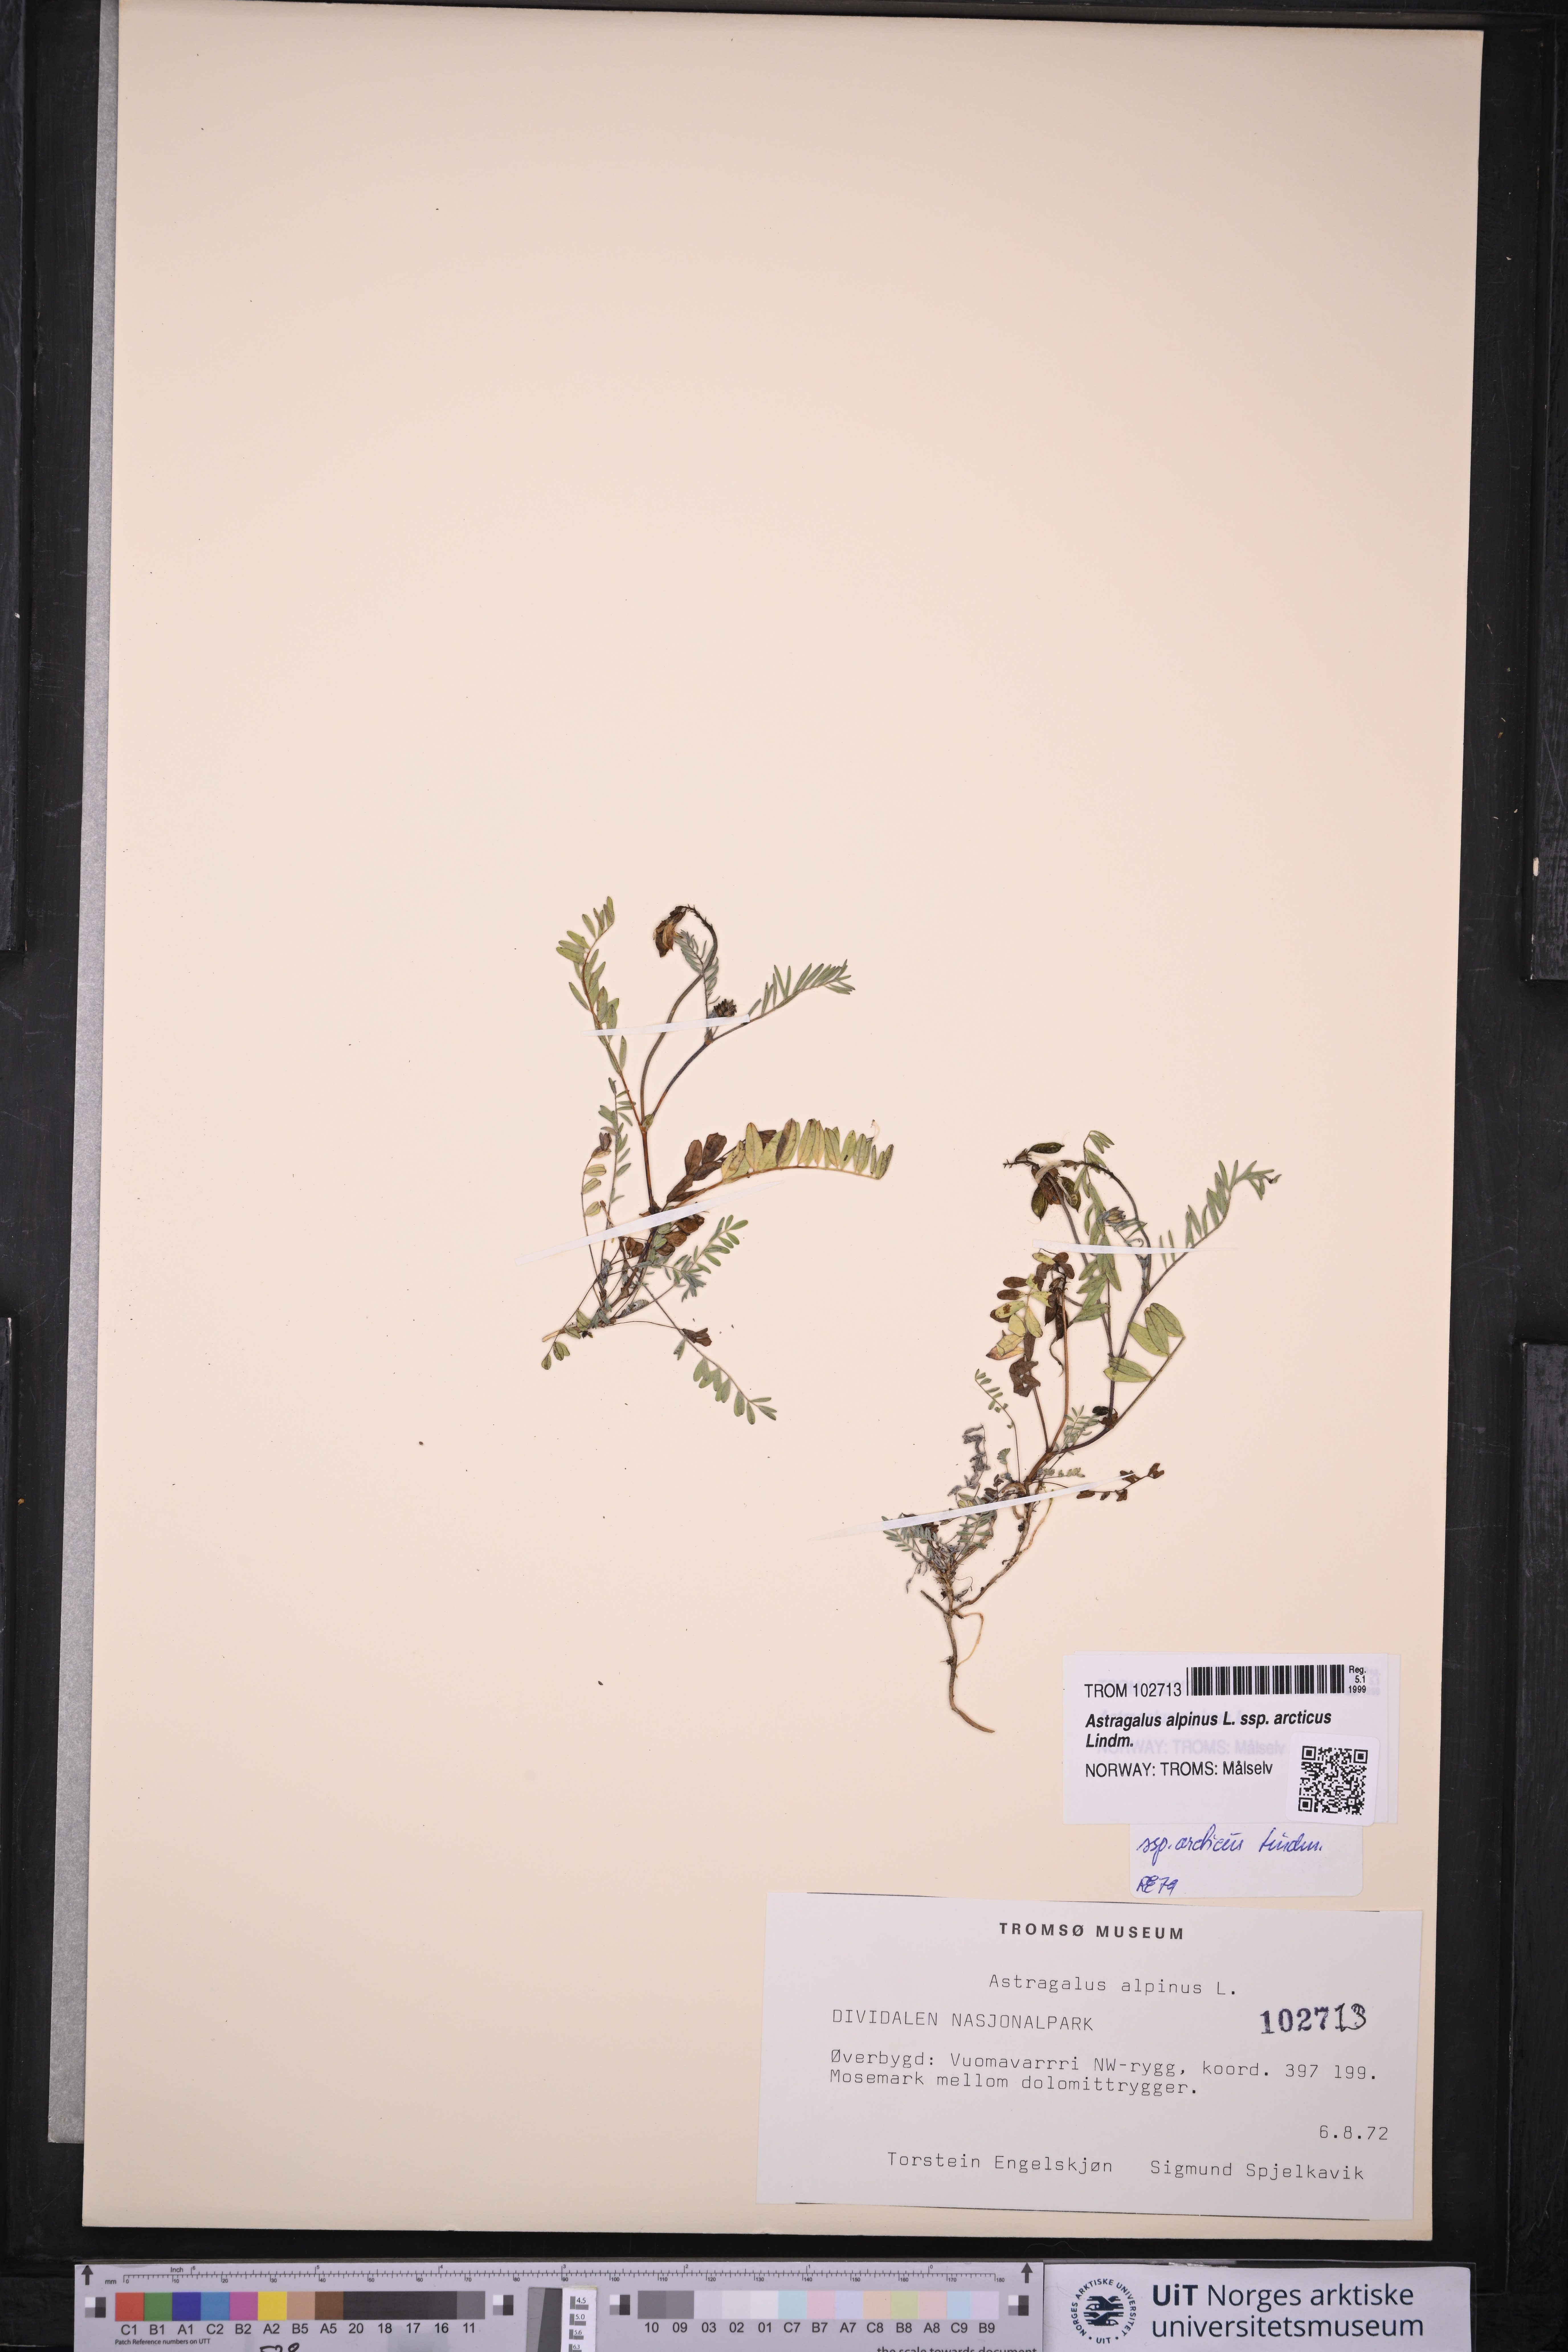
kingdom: Plantae
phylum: Tracheophyta
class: Magnoliopsida
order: Fabales
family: Fabaceae
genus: Astragalus
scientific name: Astragalus norvegicus
